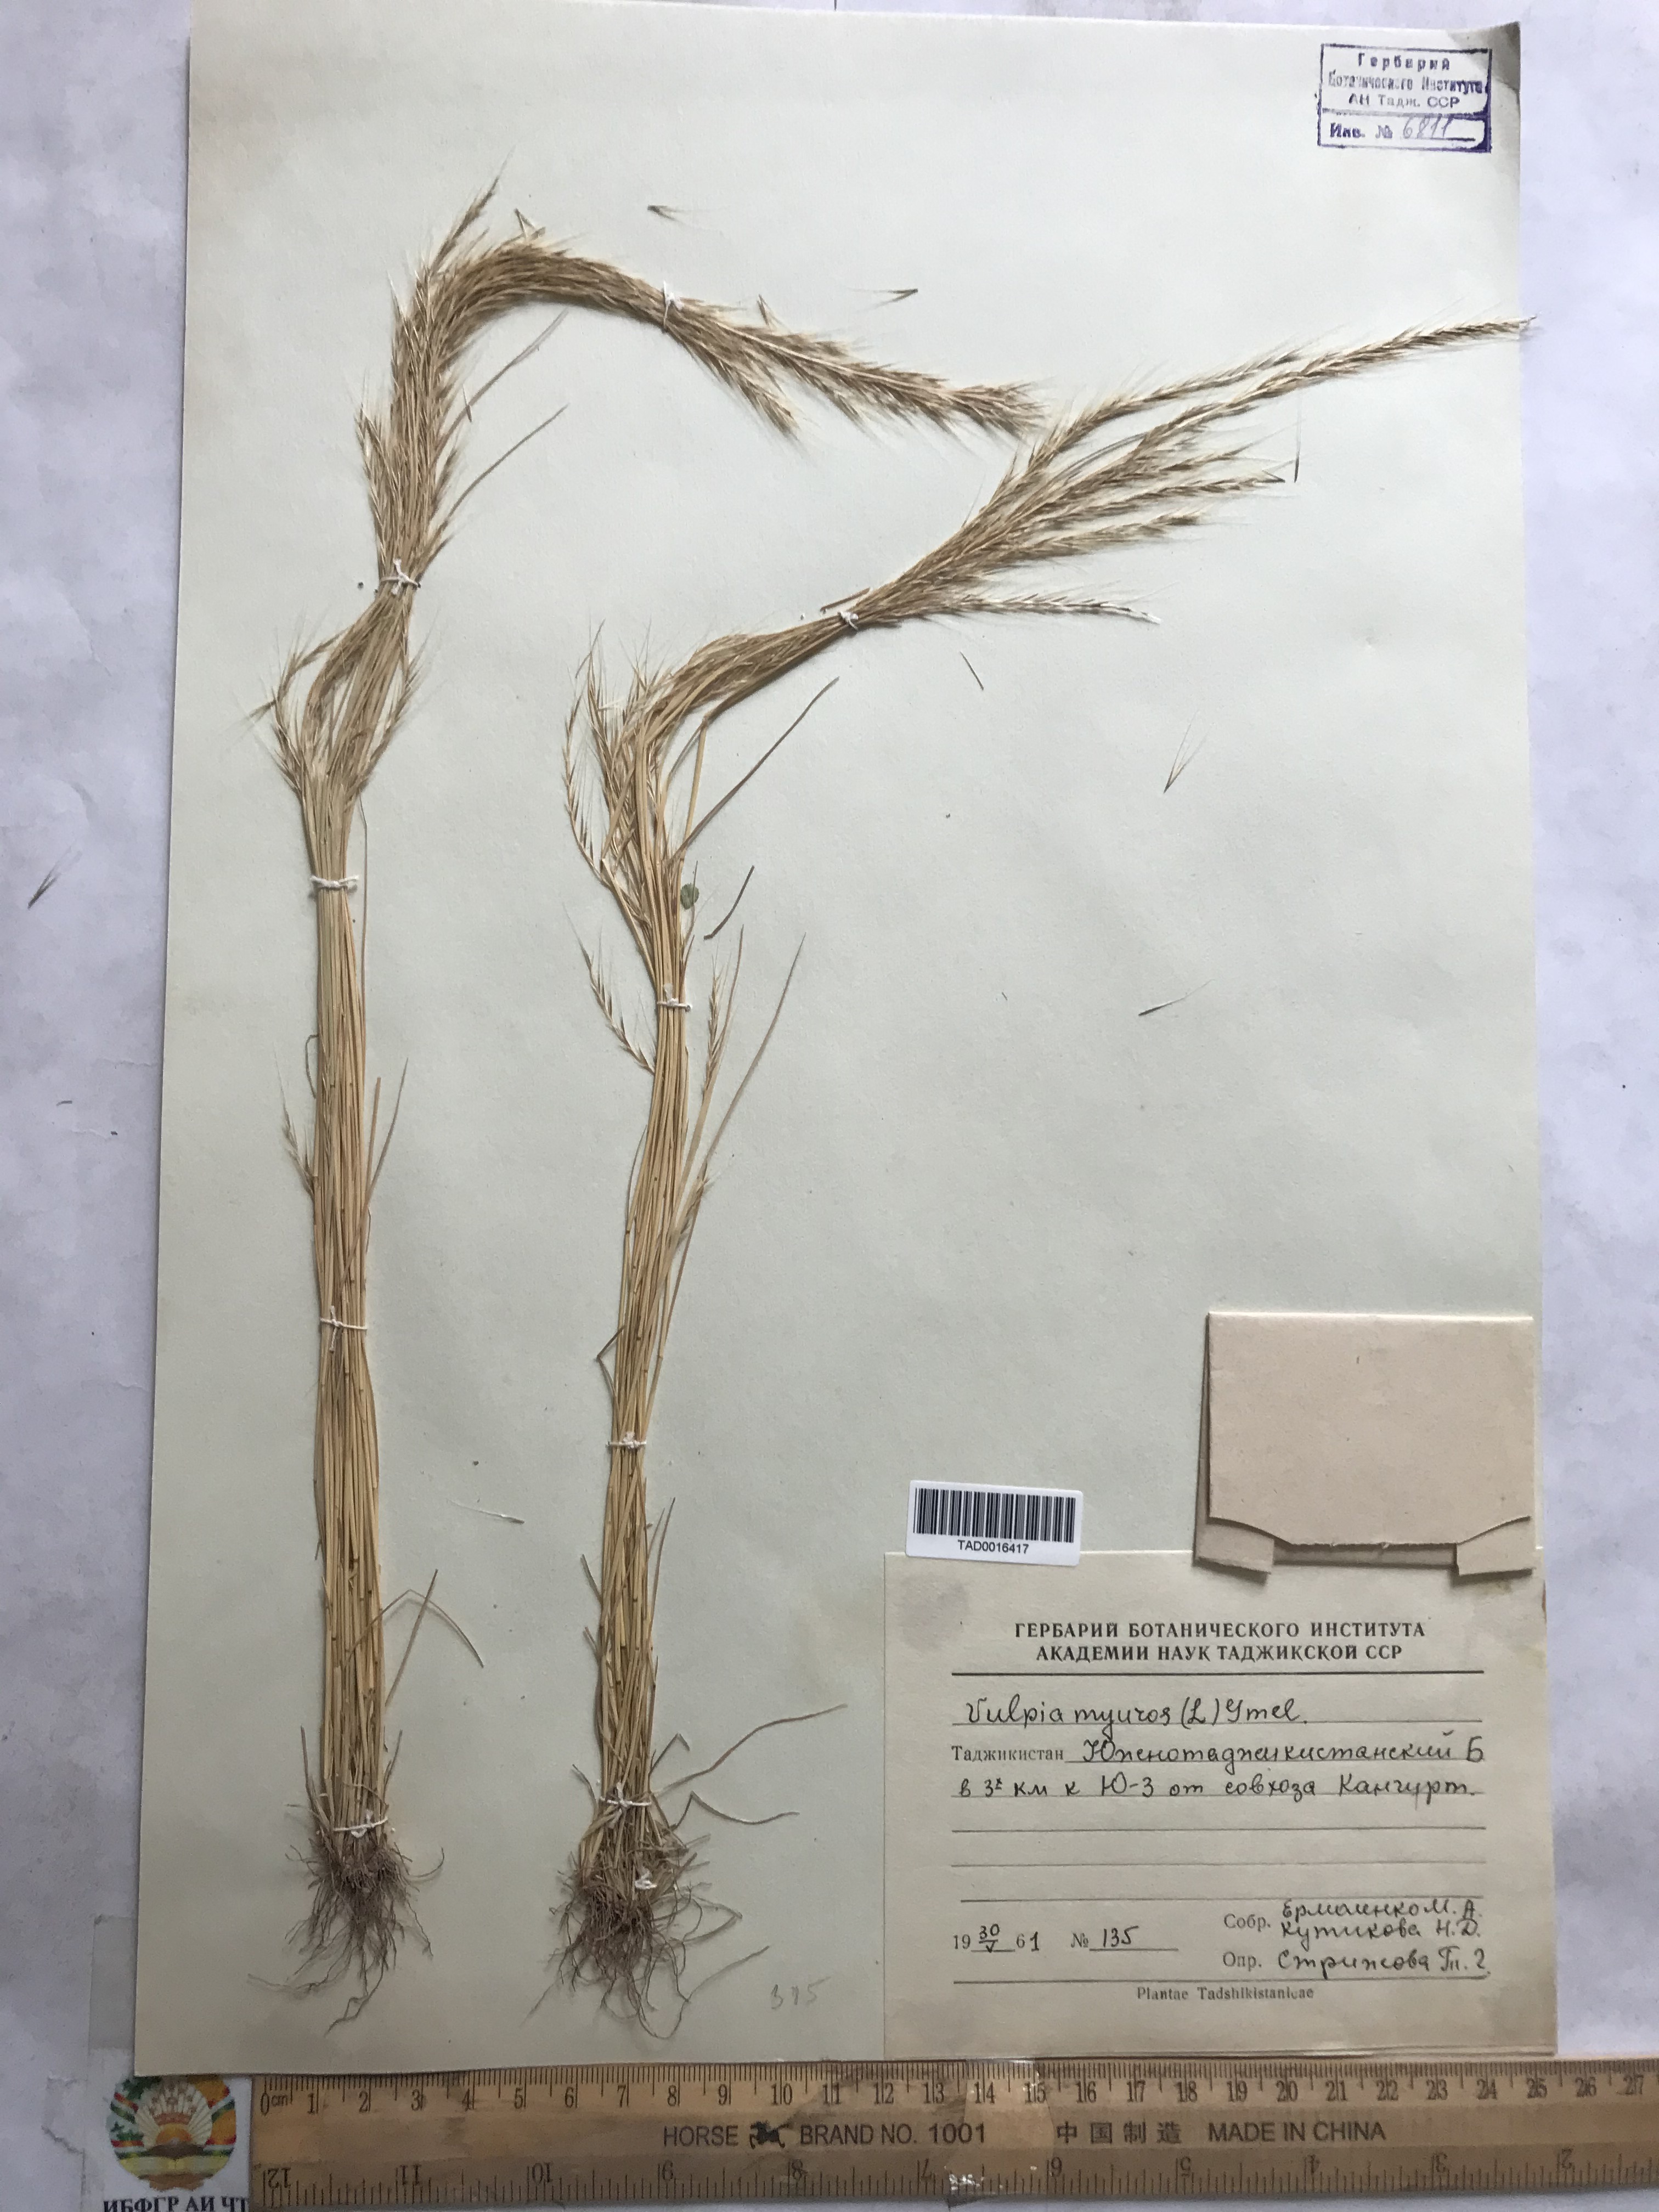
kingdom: Plantae
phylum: Tracheophyta
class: Liliopsida
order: Poales
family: Poaceae
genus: Festuca
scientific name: Festuca myuros
